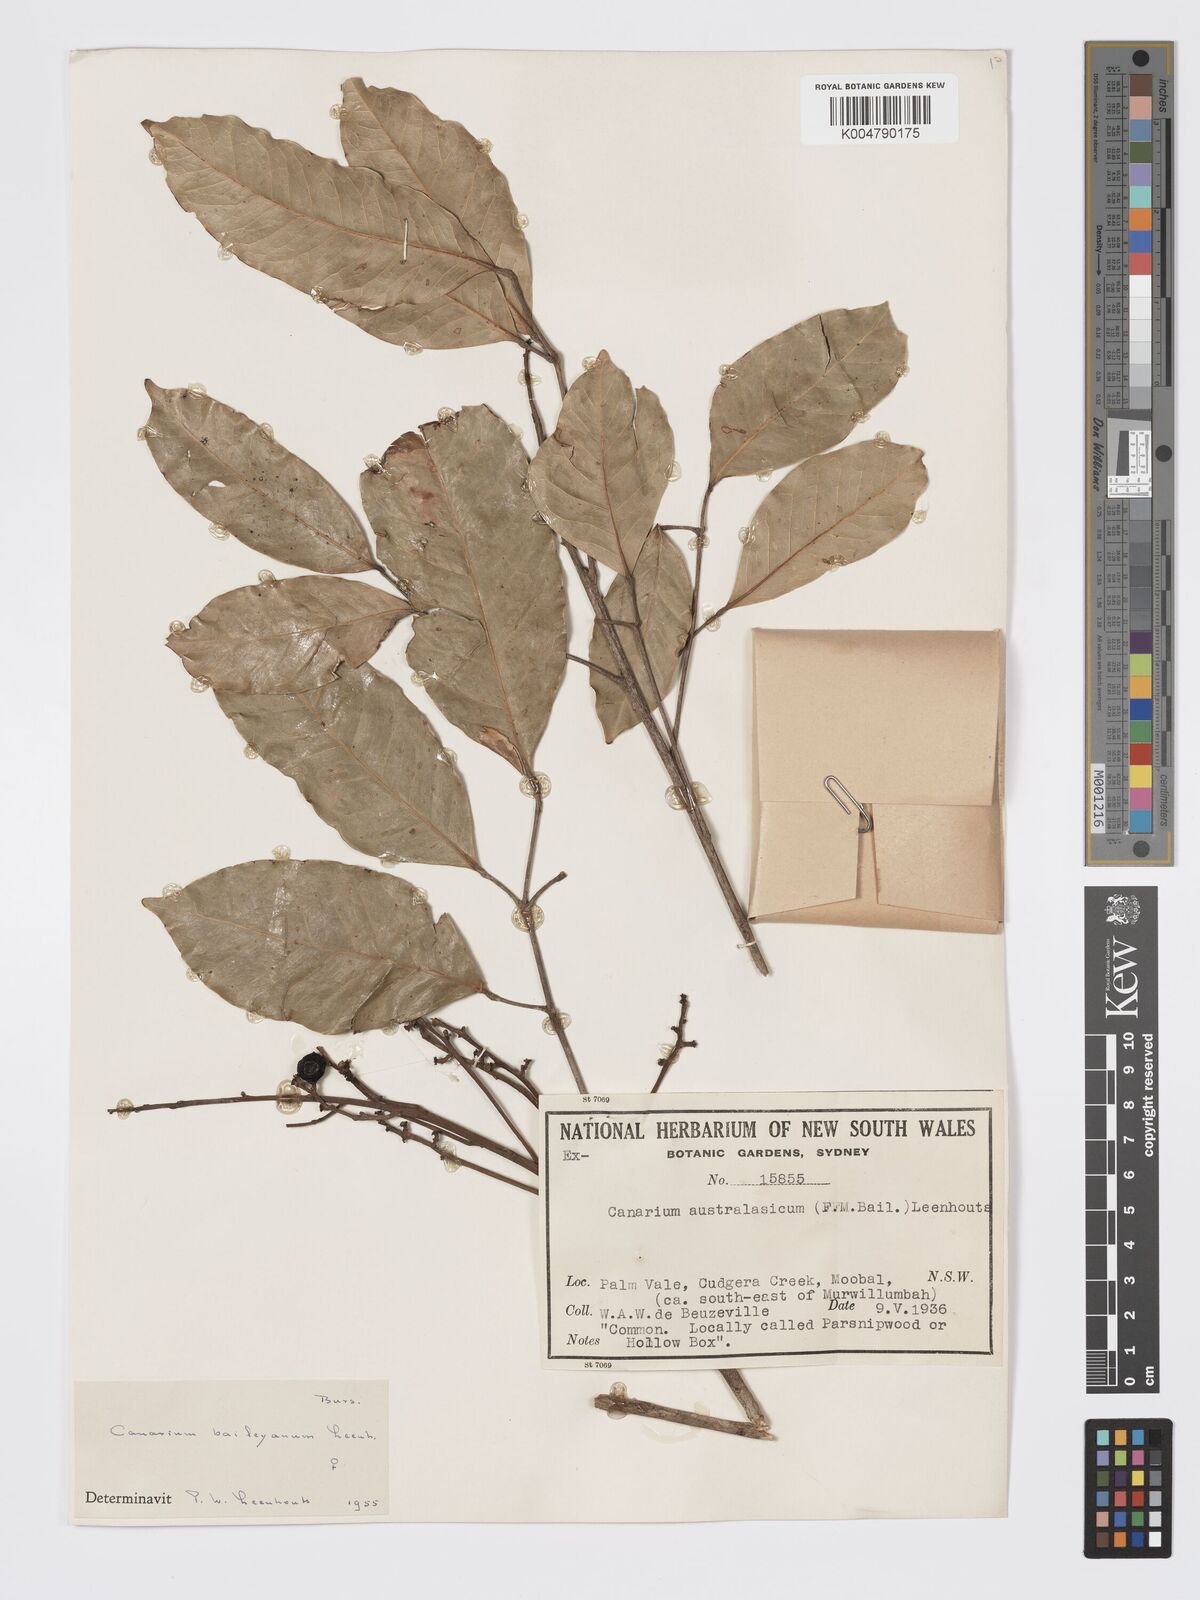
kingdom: Plantae
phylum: Tracheophyta
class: Magnoliopsida
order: Sapindales
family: Burseraceae
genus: Canarium
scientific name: Canarium australasicum
